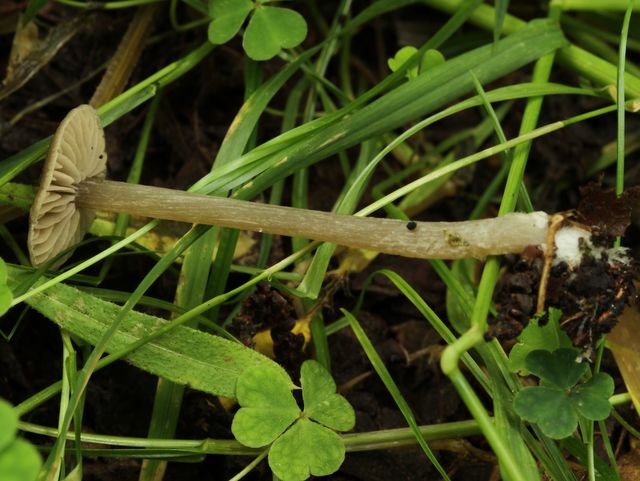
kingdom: Fungi
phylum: Basidiomycota
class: Agaricomycetes
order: Agaricales
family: Entolomataceae
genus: Entoloma
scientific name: Entoloma
